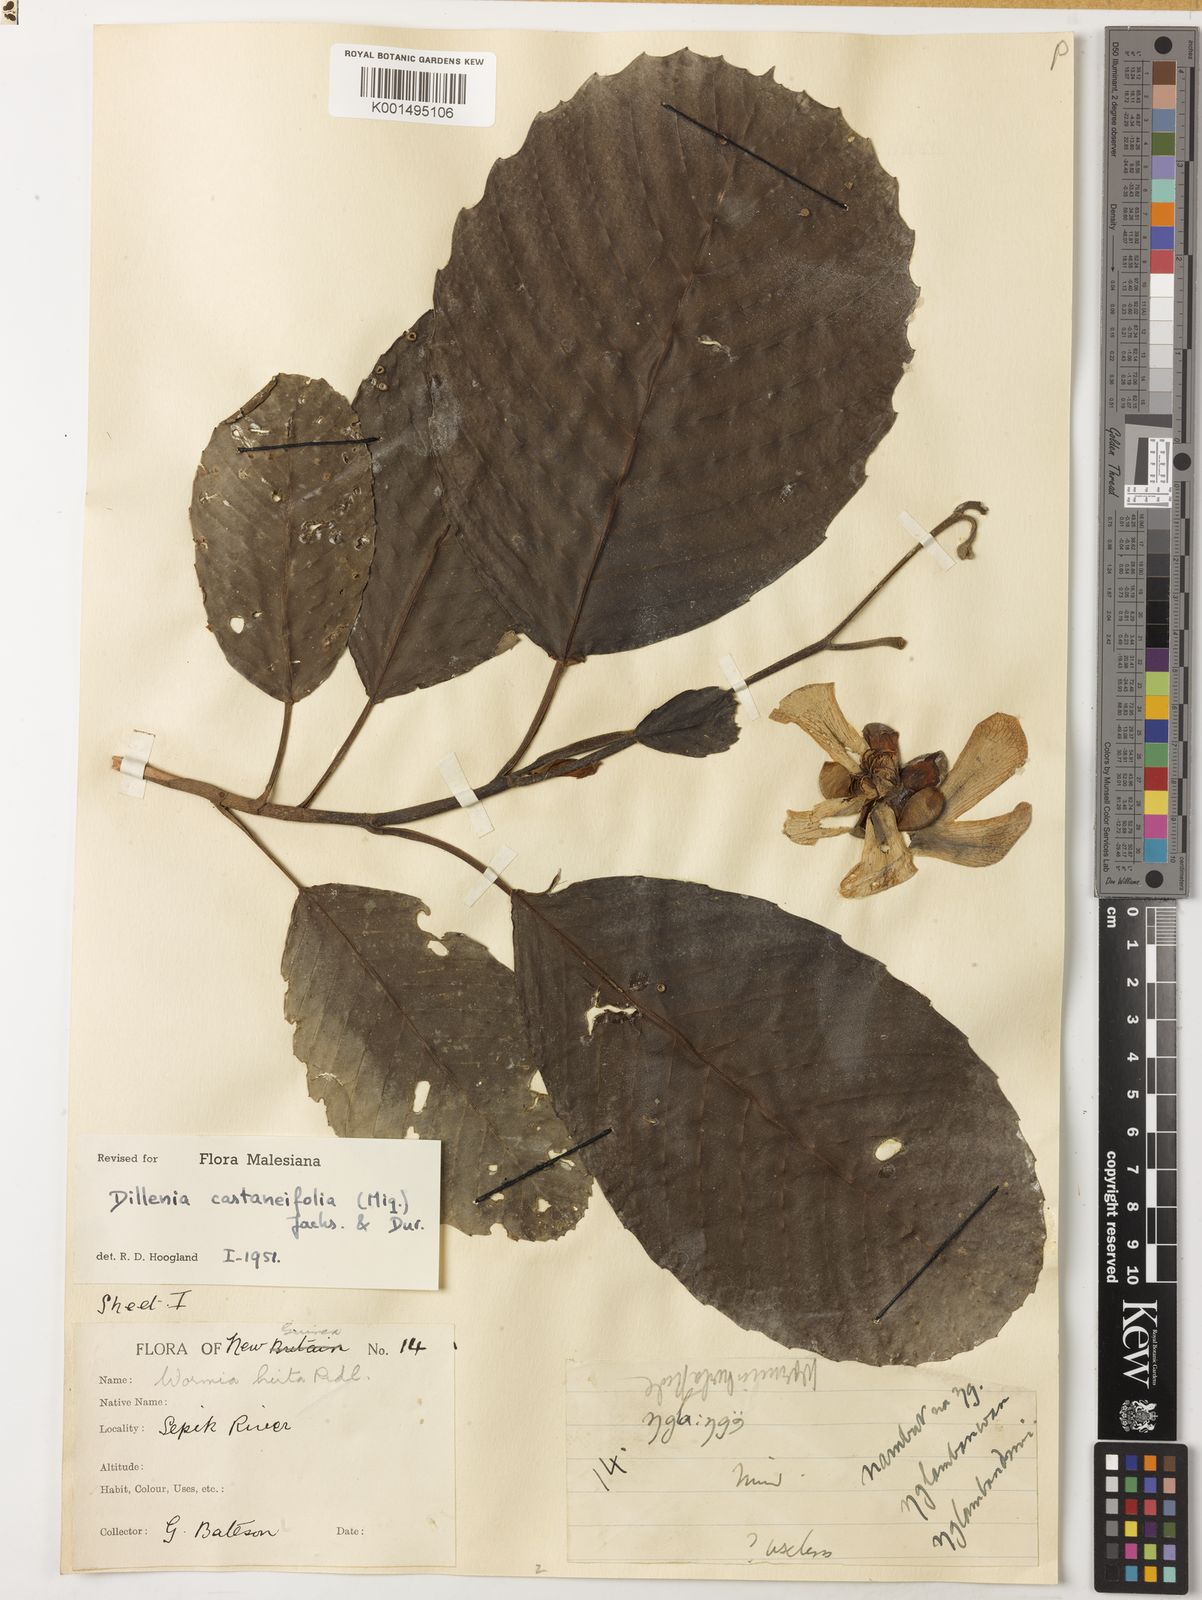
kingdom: Plantae
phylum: Tracheophyta
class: Magnoliopsida
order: Dilleniales
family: Dilleniaceae
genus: Dillenia
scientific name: Dillenia castaneifolia
